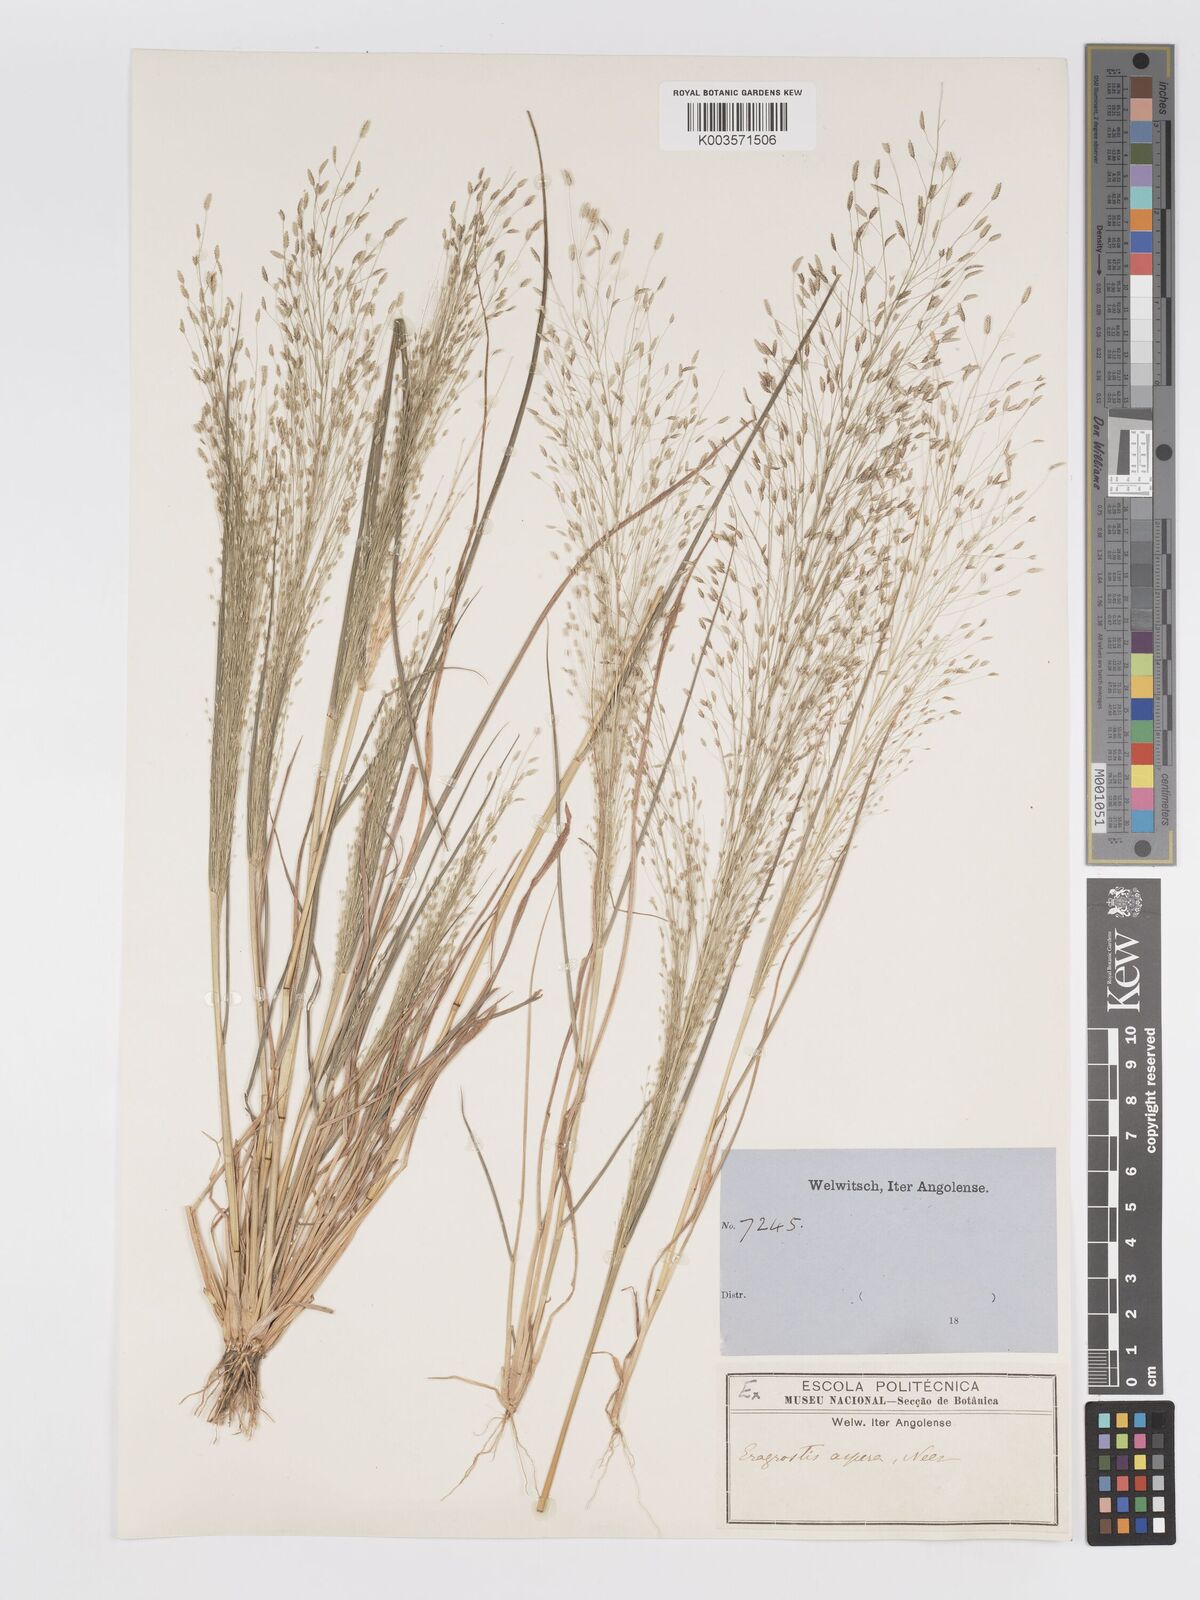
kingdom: Plantae
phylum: Tracheophyta
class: Liliopsida
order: Poales
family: Poaceae
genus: Eragrostis
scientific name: Eragrostis aspera
